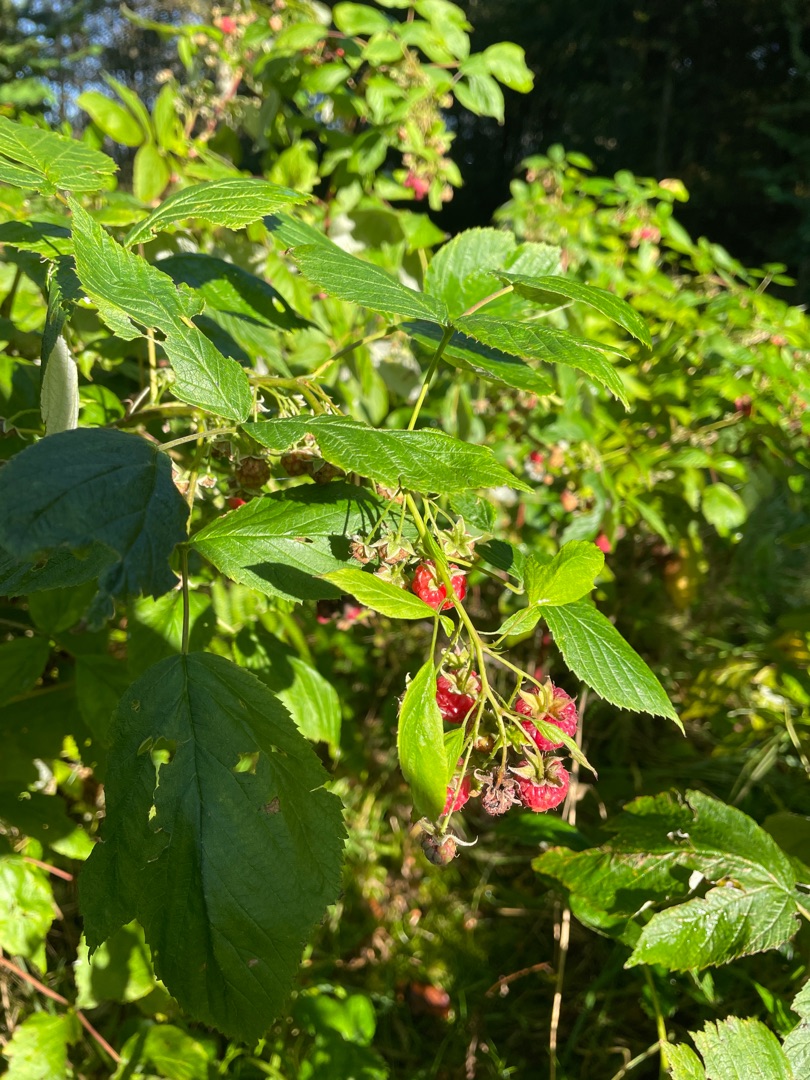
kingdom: Plantae
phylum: Tracheophyta
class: Magnoliopsida
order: Rosales
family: Rosaceae
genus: Rubus
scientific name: Rubus idaeus
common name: Hindbær
